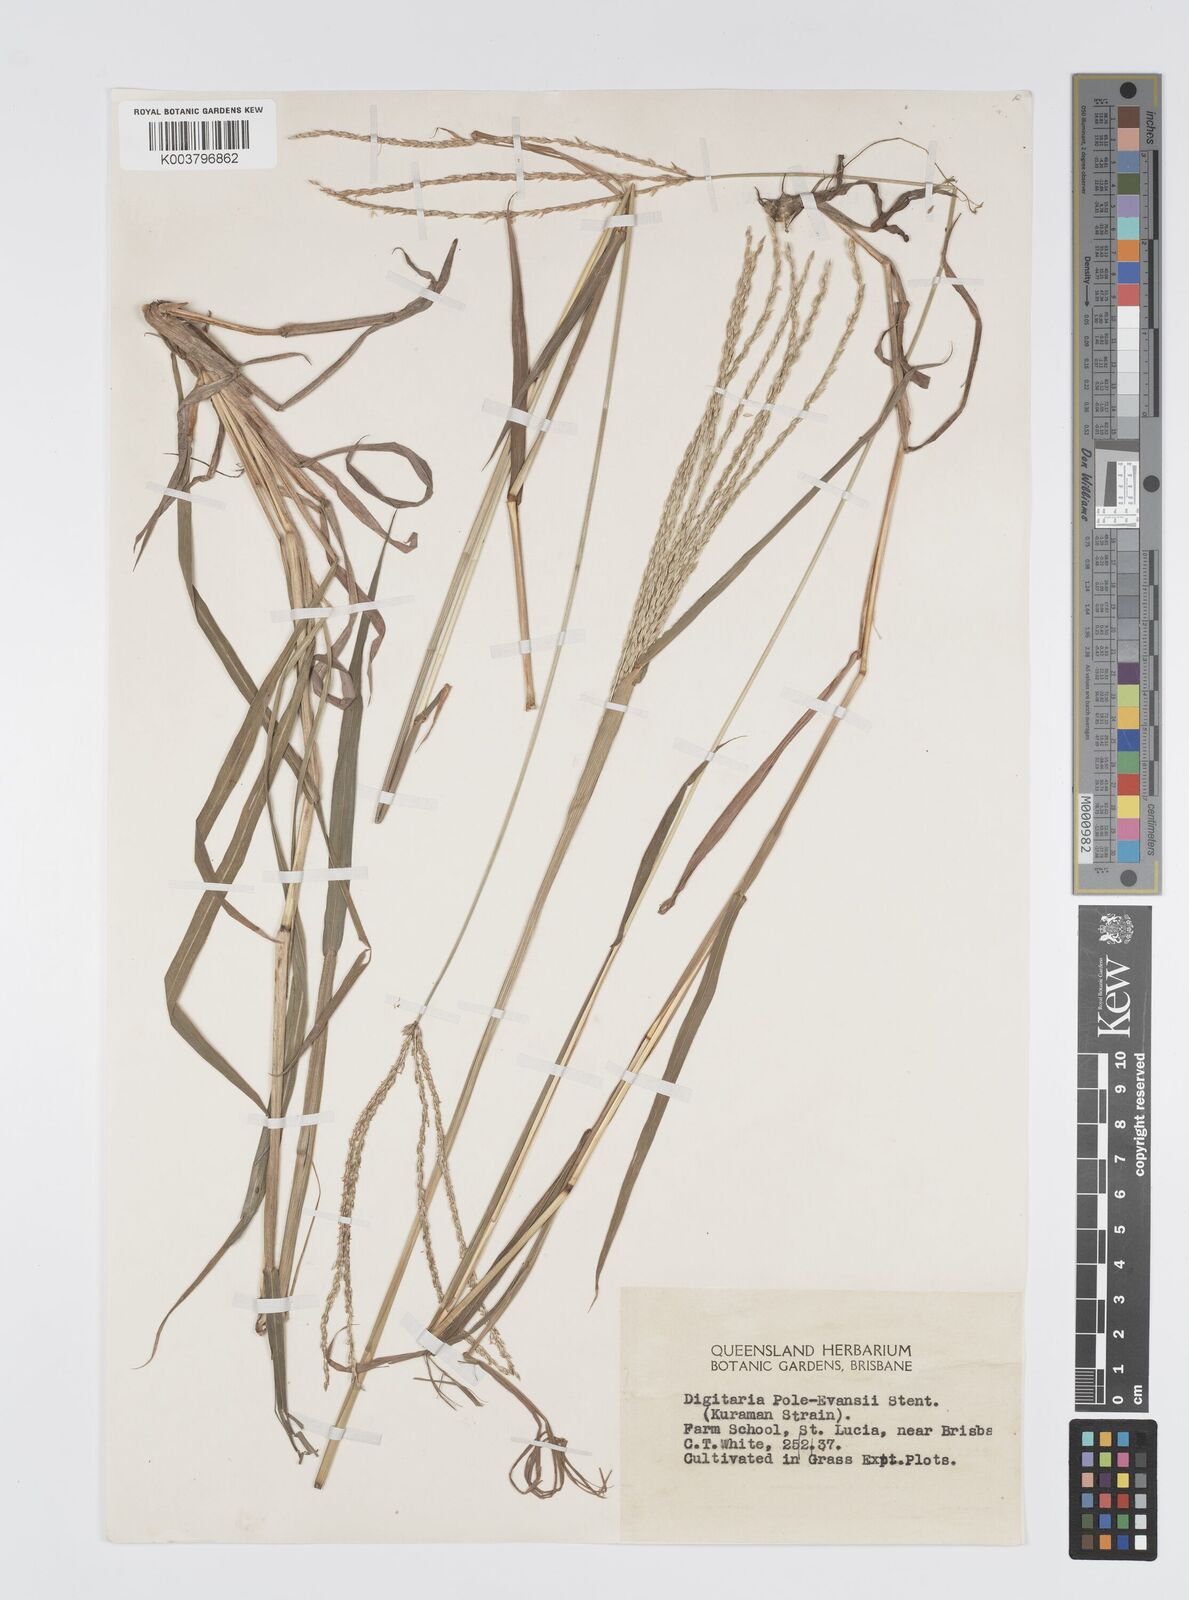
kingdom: Plantae
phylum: Tracheophyta
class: Liliopsida
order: Poales
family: Poaceae
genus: Digitaria
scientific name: Digitaria seriata
